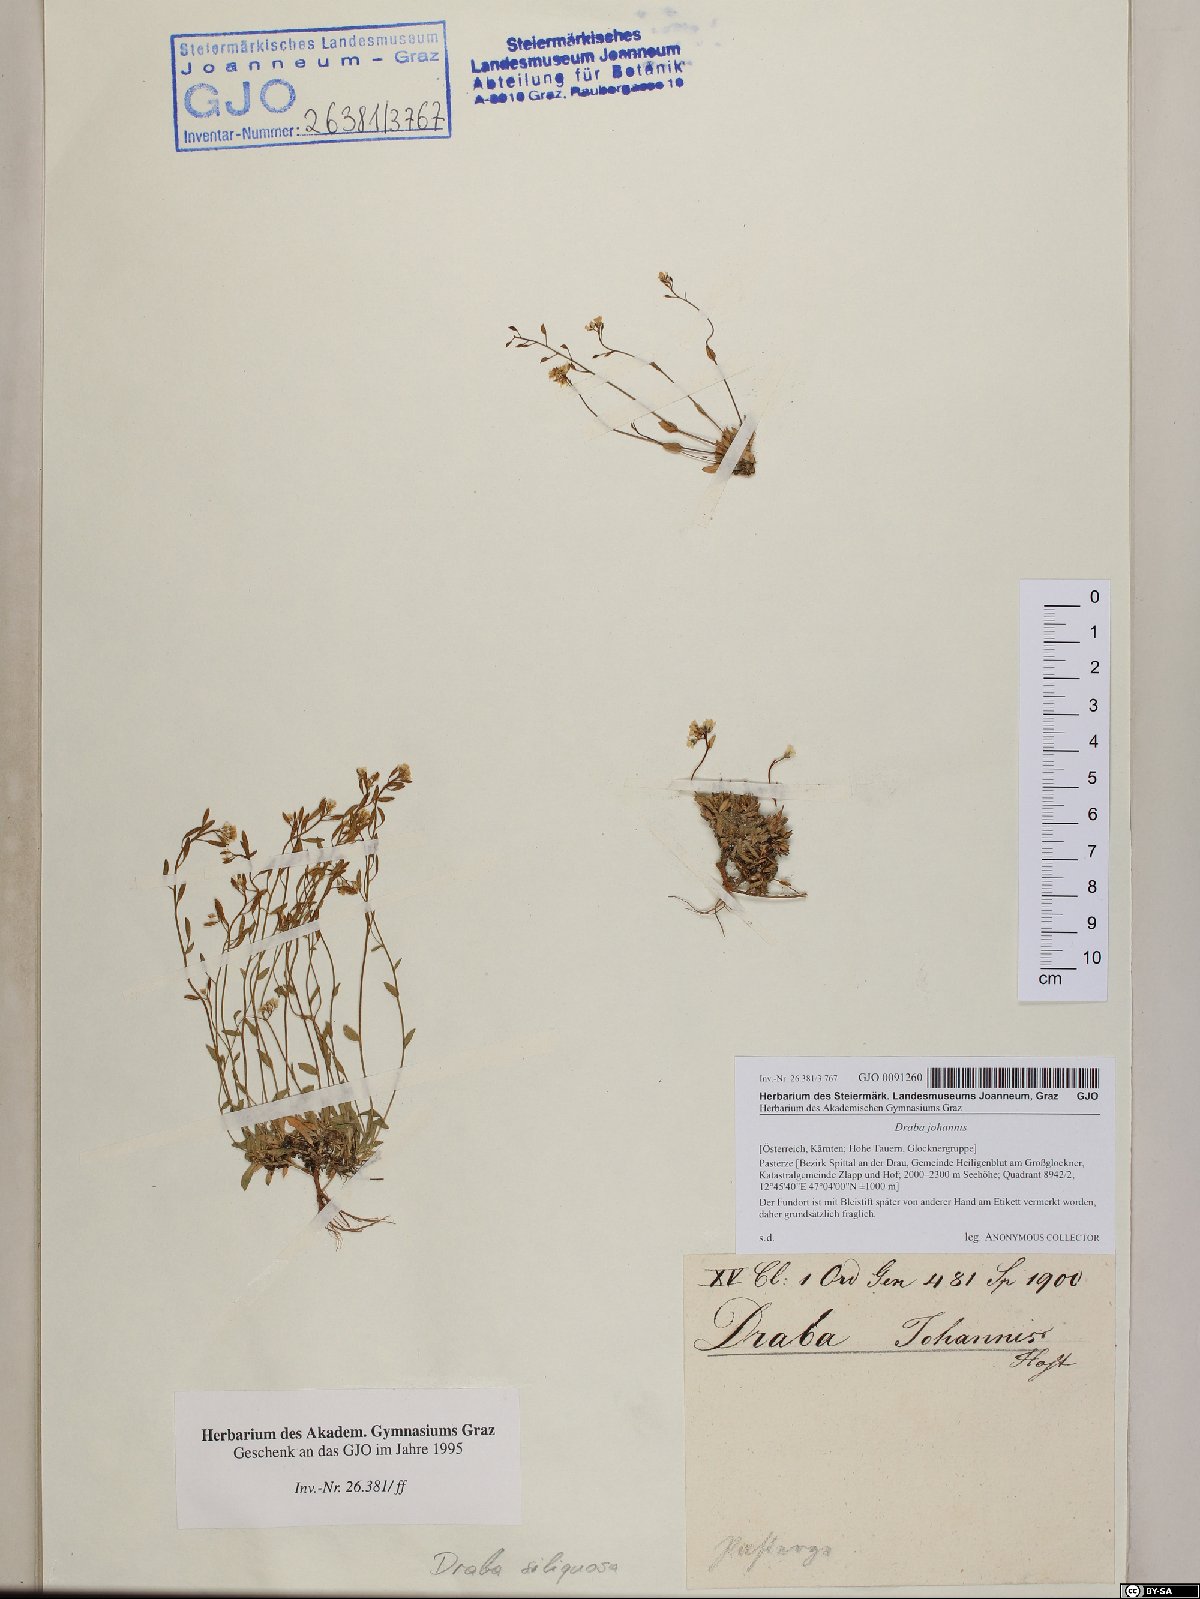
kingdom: Plantae
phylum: Tracheophyta
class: Magnoliopsida
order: Brassicales
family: Brassicaceae
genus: Draba
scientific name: Draba siliquosa
